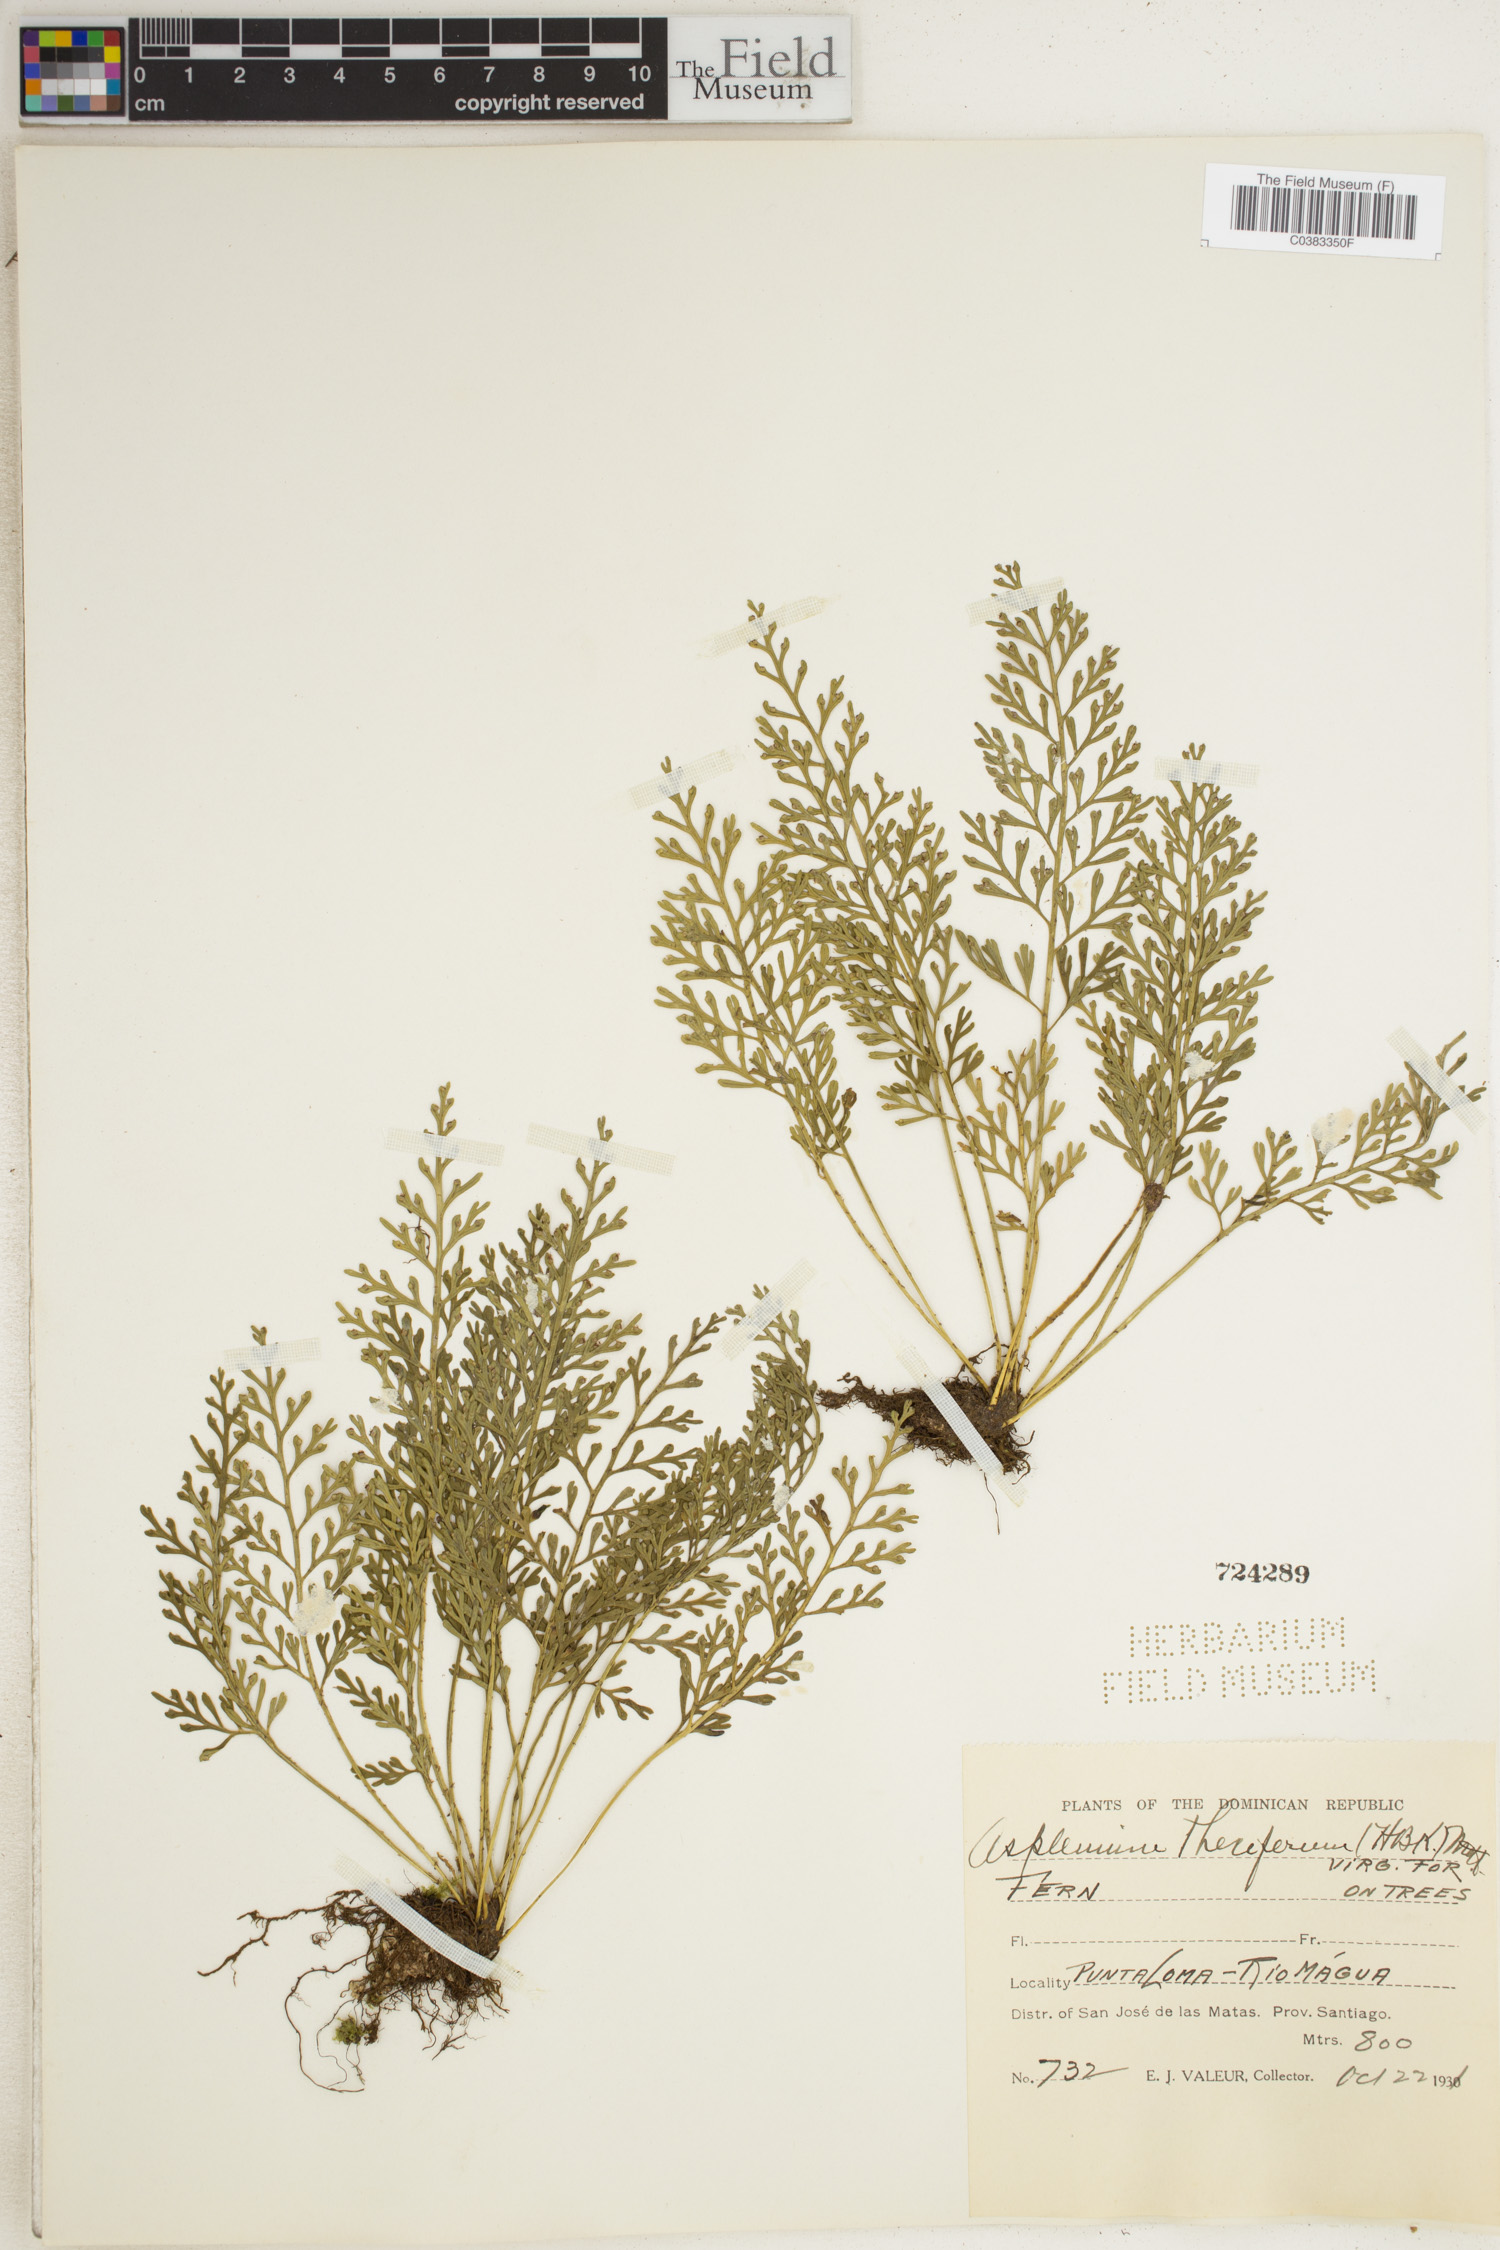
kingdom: Plantae
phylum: Tracheophyta
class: Polypodiopsida
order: Polypodiales
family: Aspleniaceae
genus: Asplenium
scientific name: Asplenium theciferum
